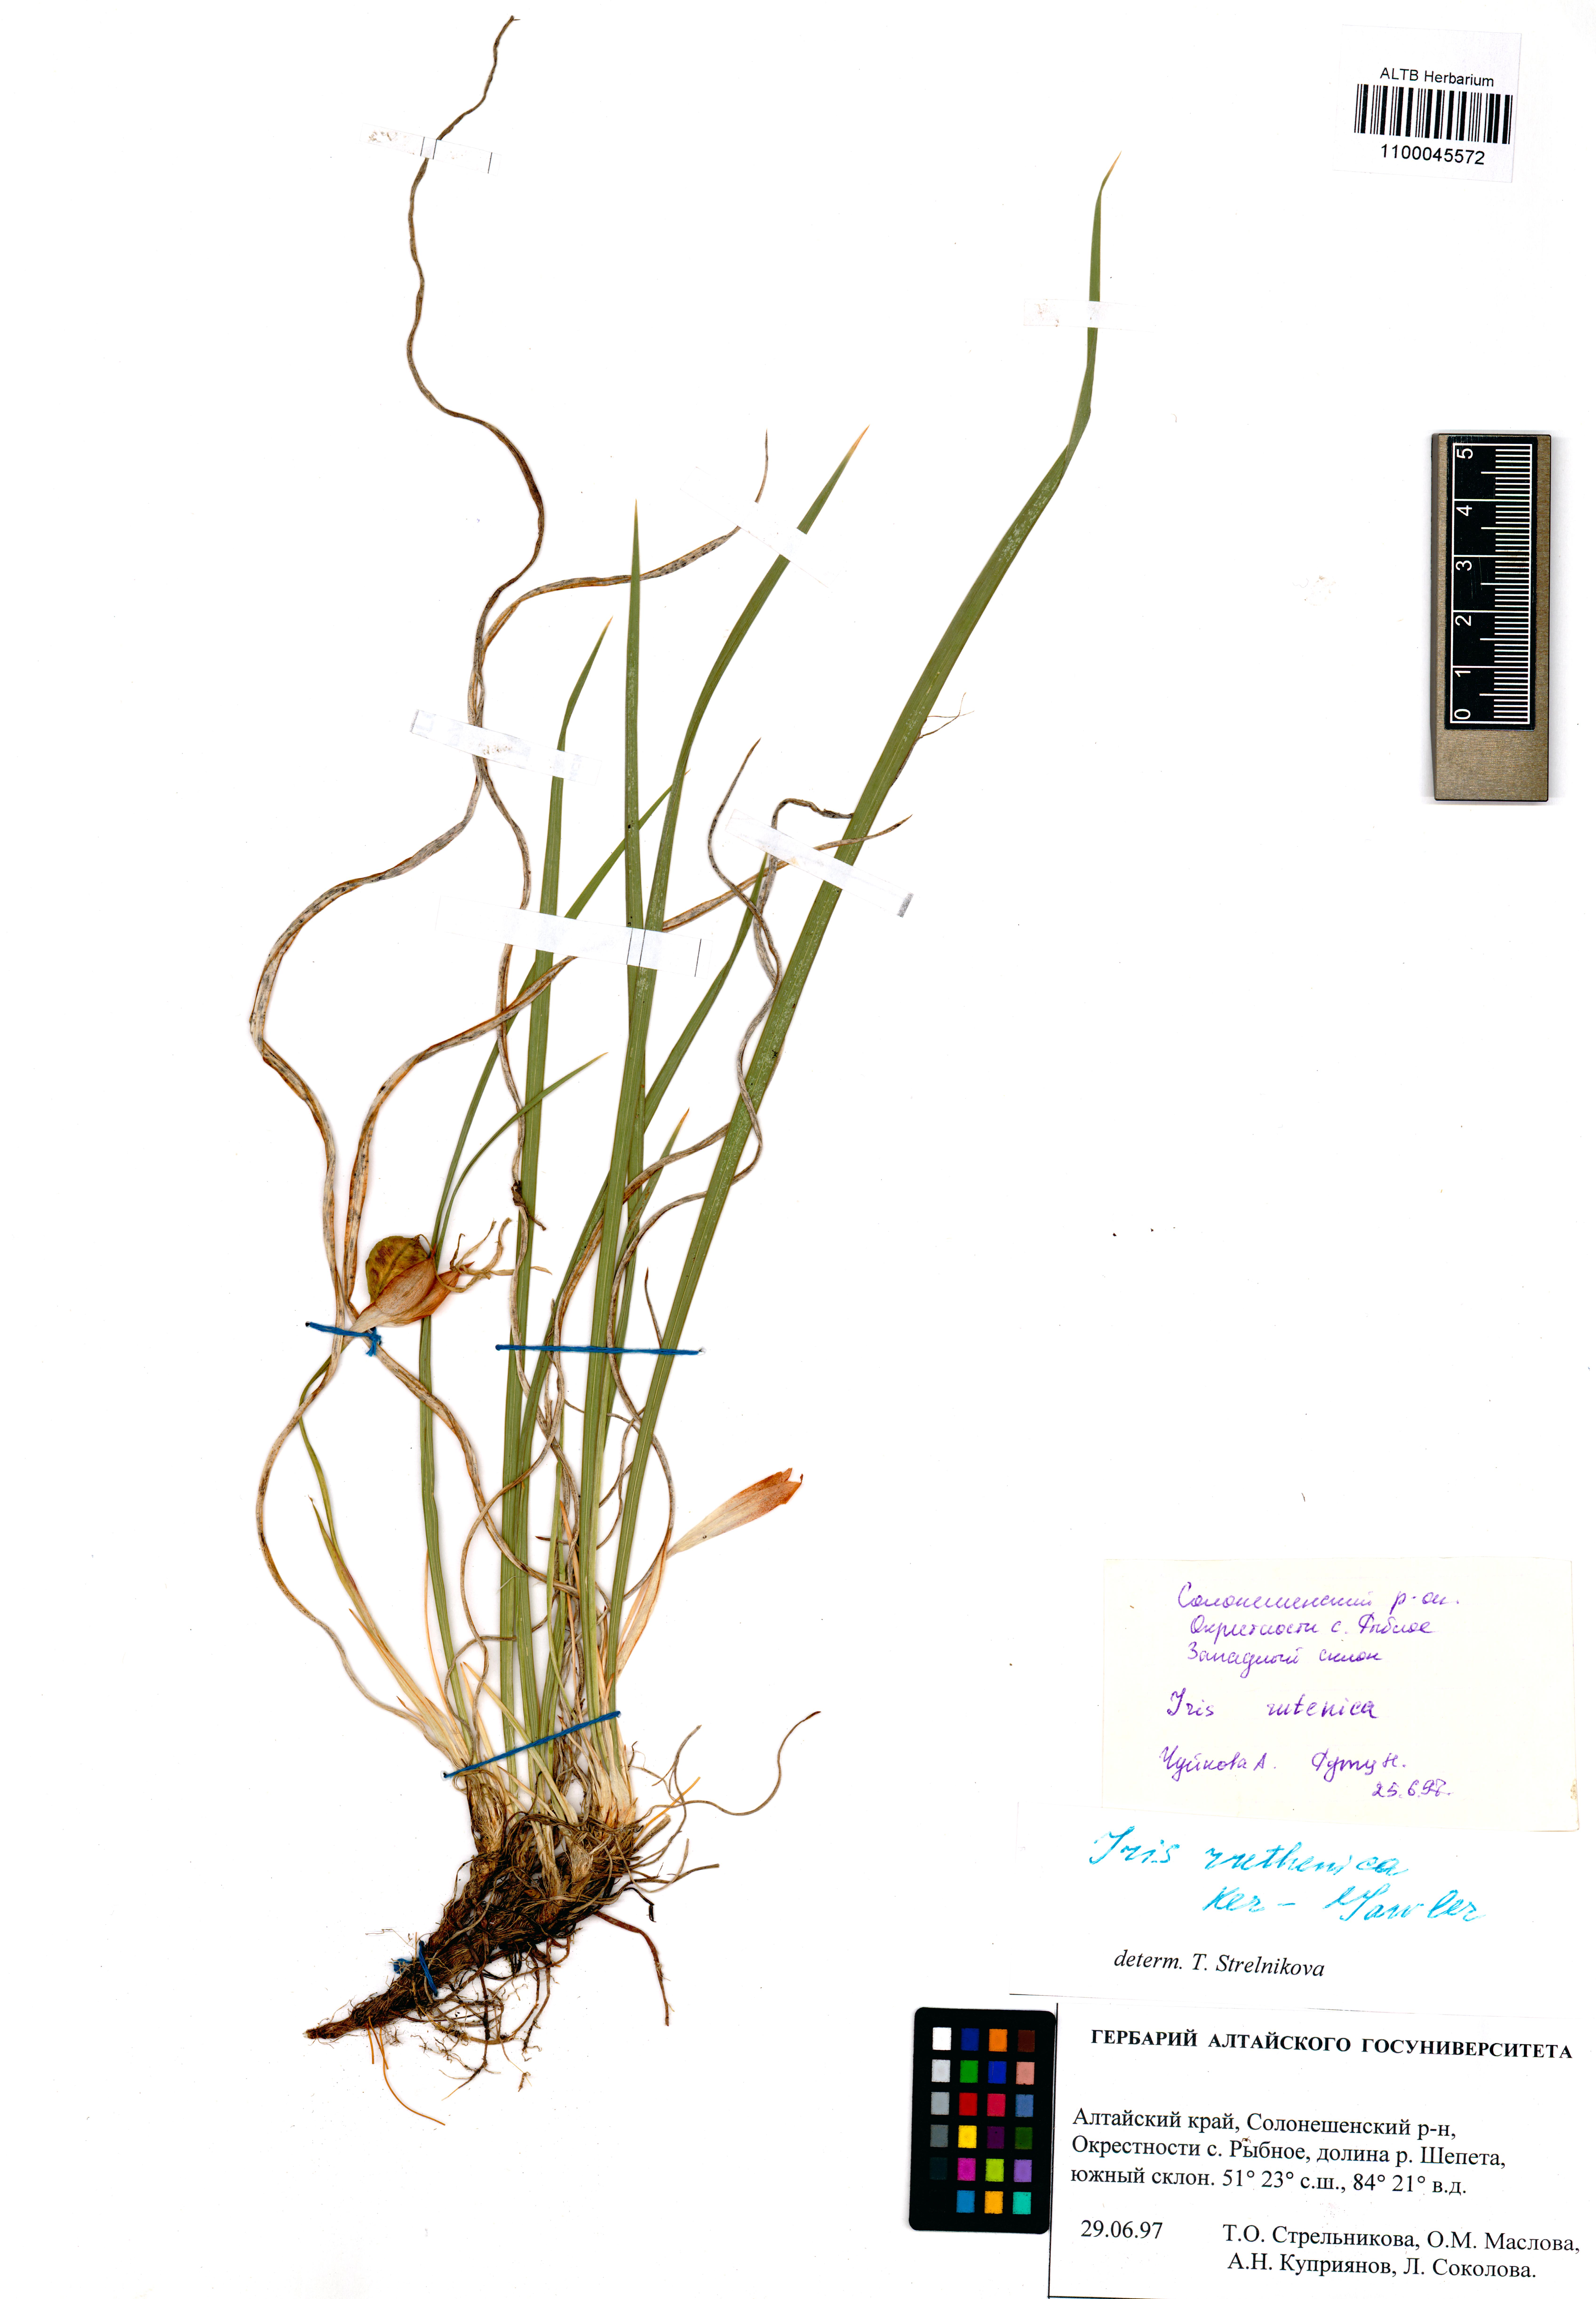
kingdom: Plantae
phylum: Tracheophyta
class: Liliopsida
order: Asparagales
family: Iridaceae
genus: Iris
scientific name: Iris ruthenica
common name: Purple-bract iris
